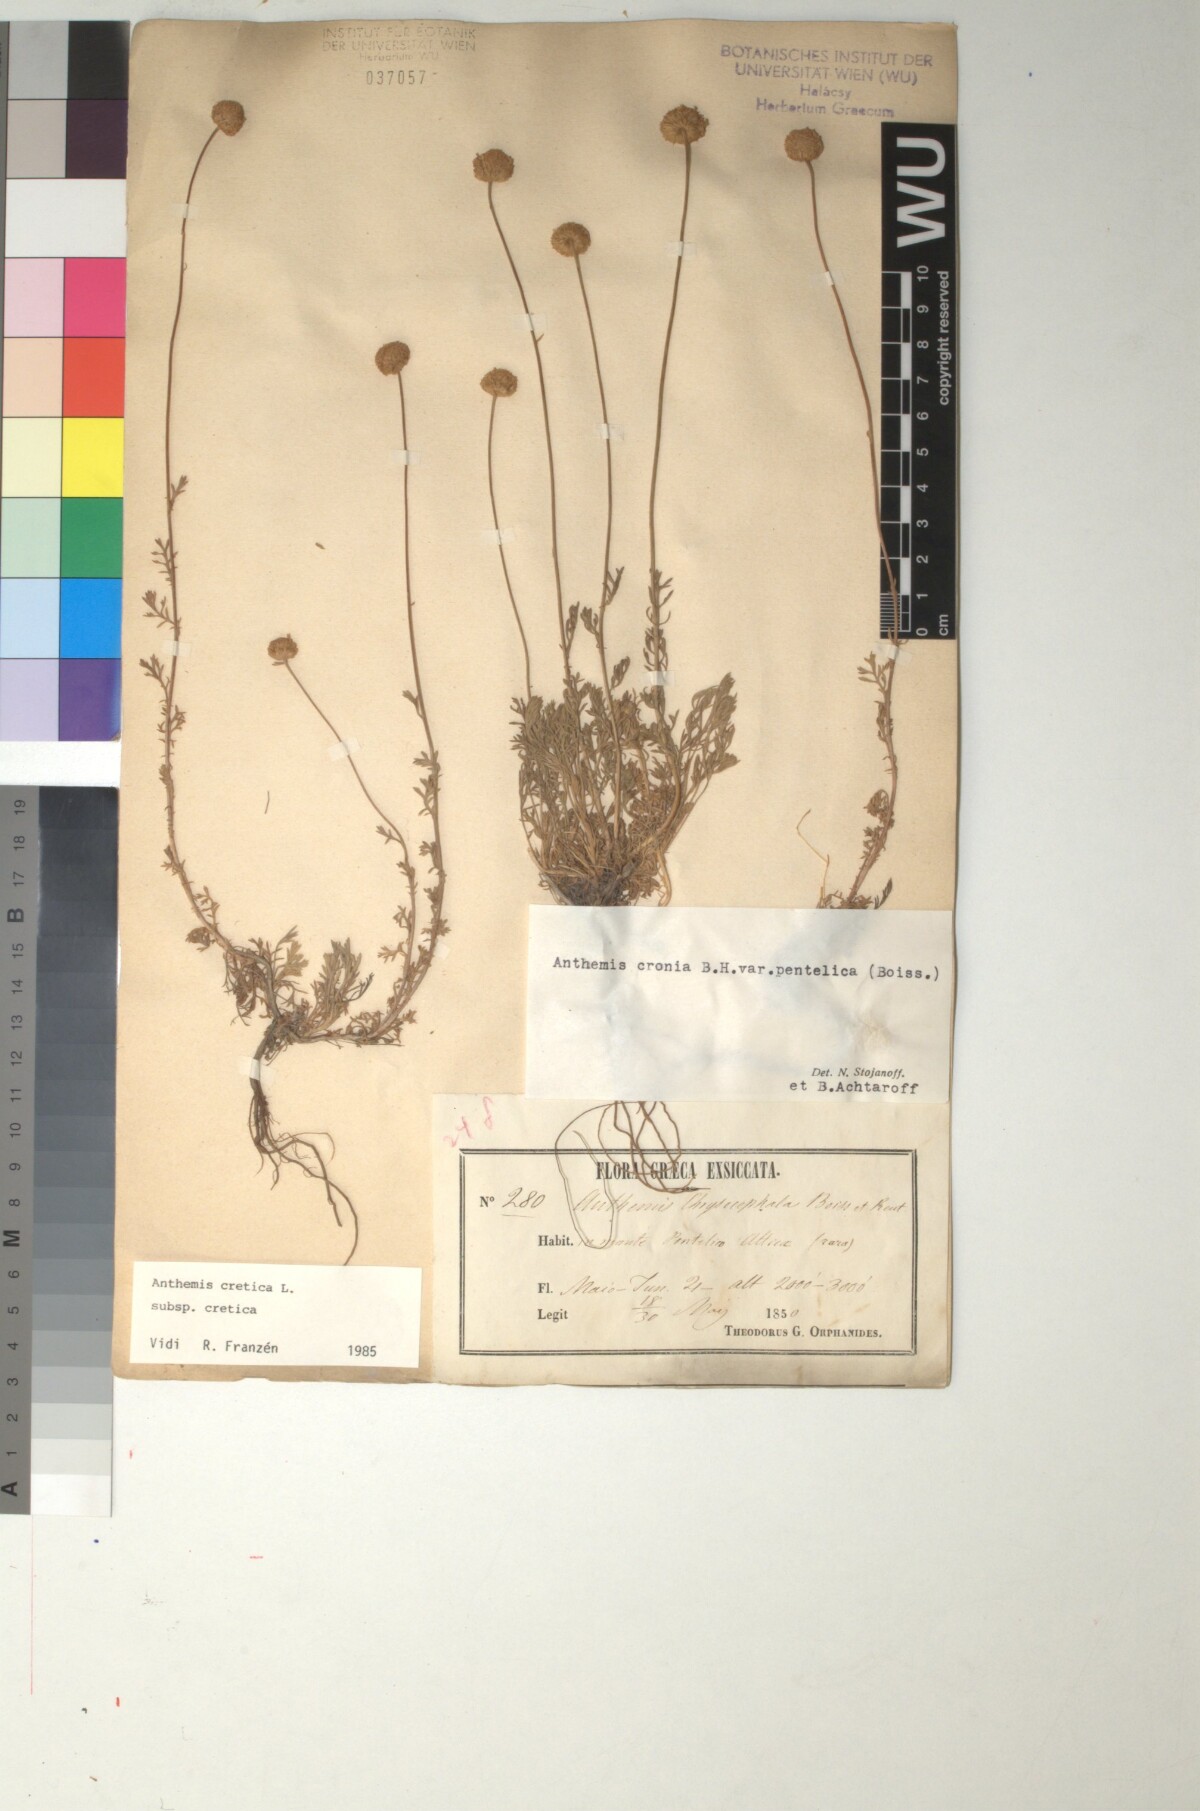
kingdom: Plantae
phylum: Tracheophyta
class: Magnoliopsida
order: Asterales
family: Asteraceae
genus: Anthemis
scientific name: Anthemis cretica
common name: Mountain dog-daisy
